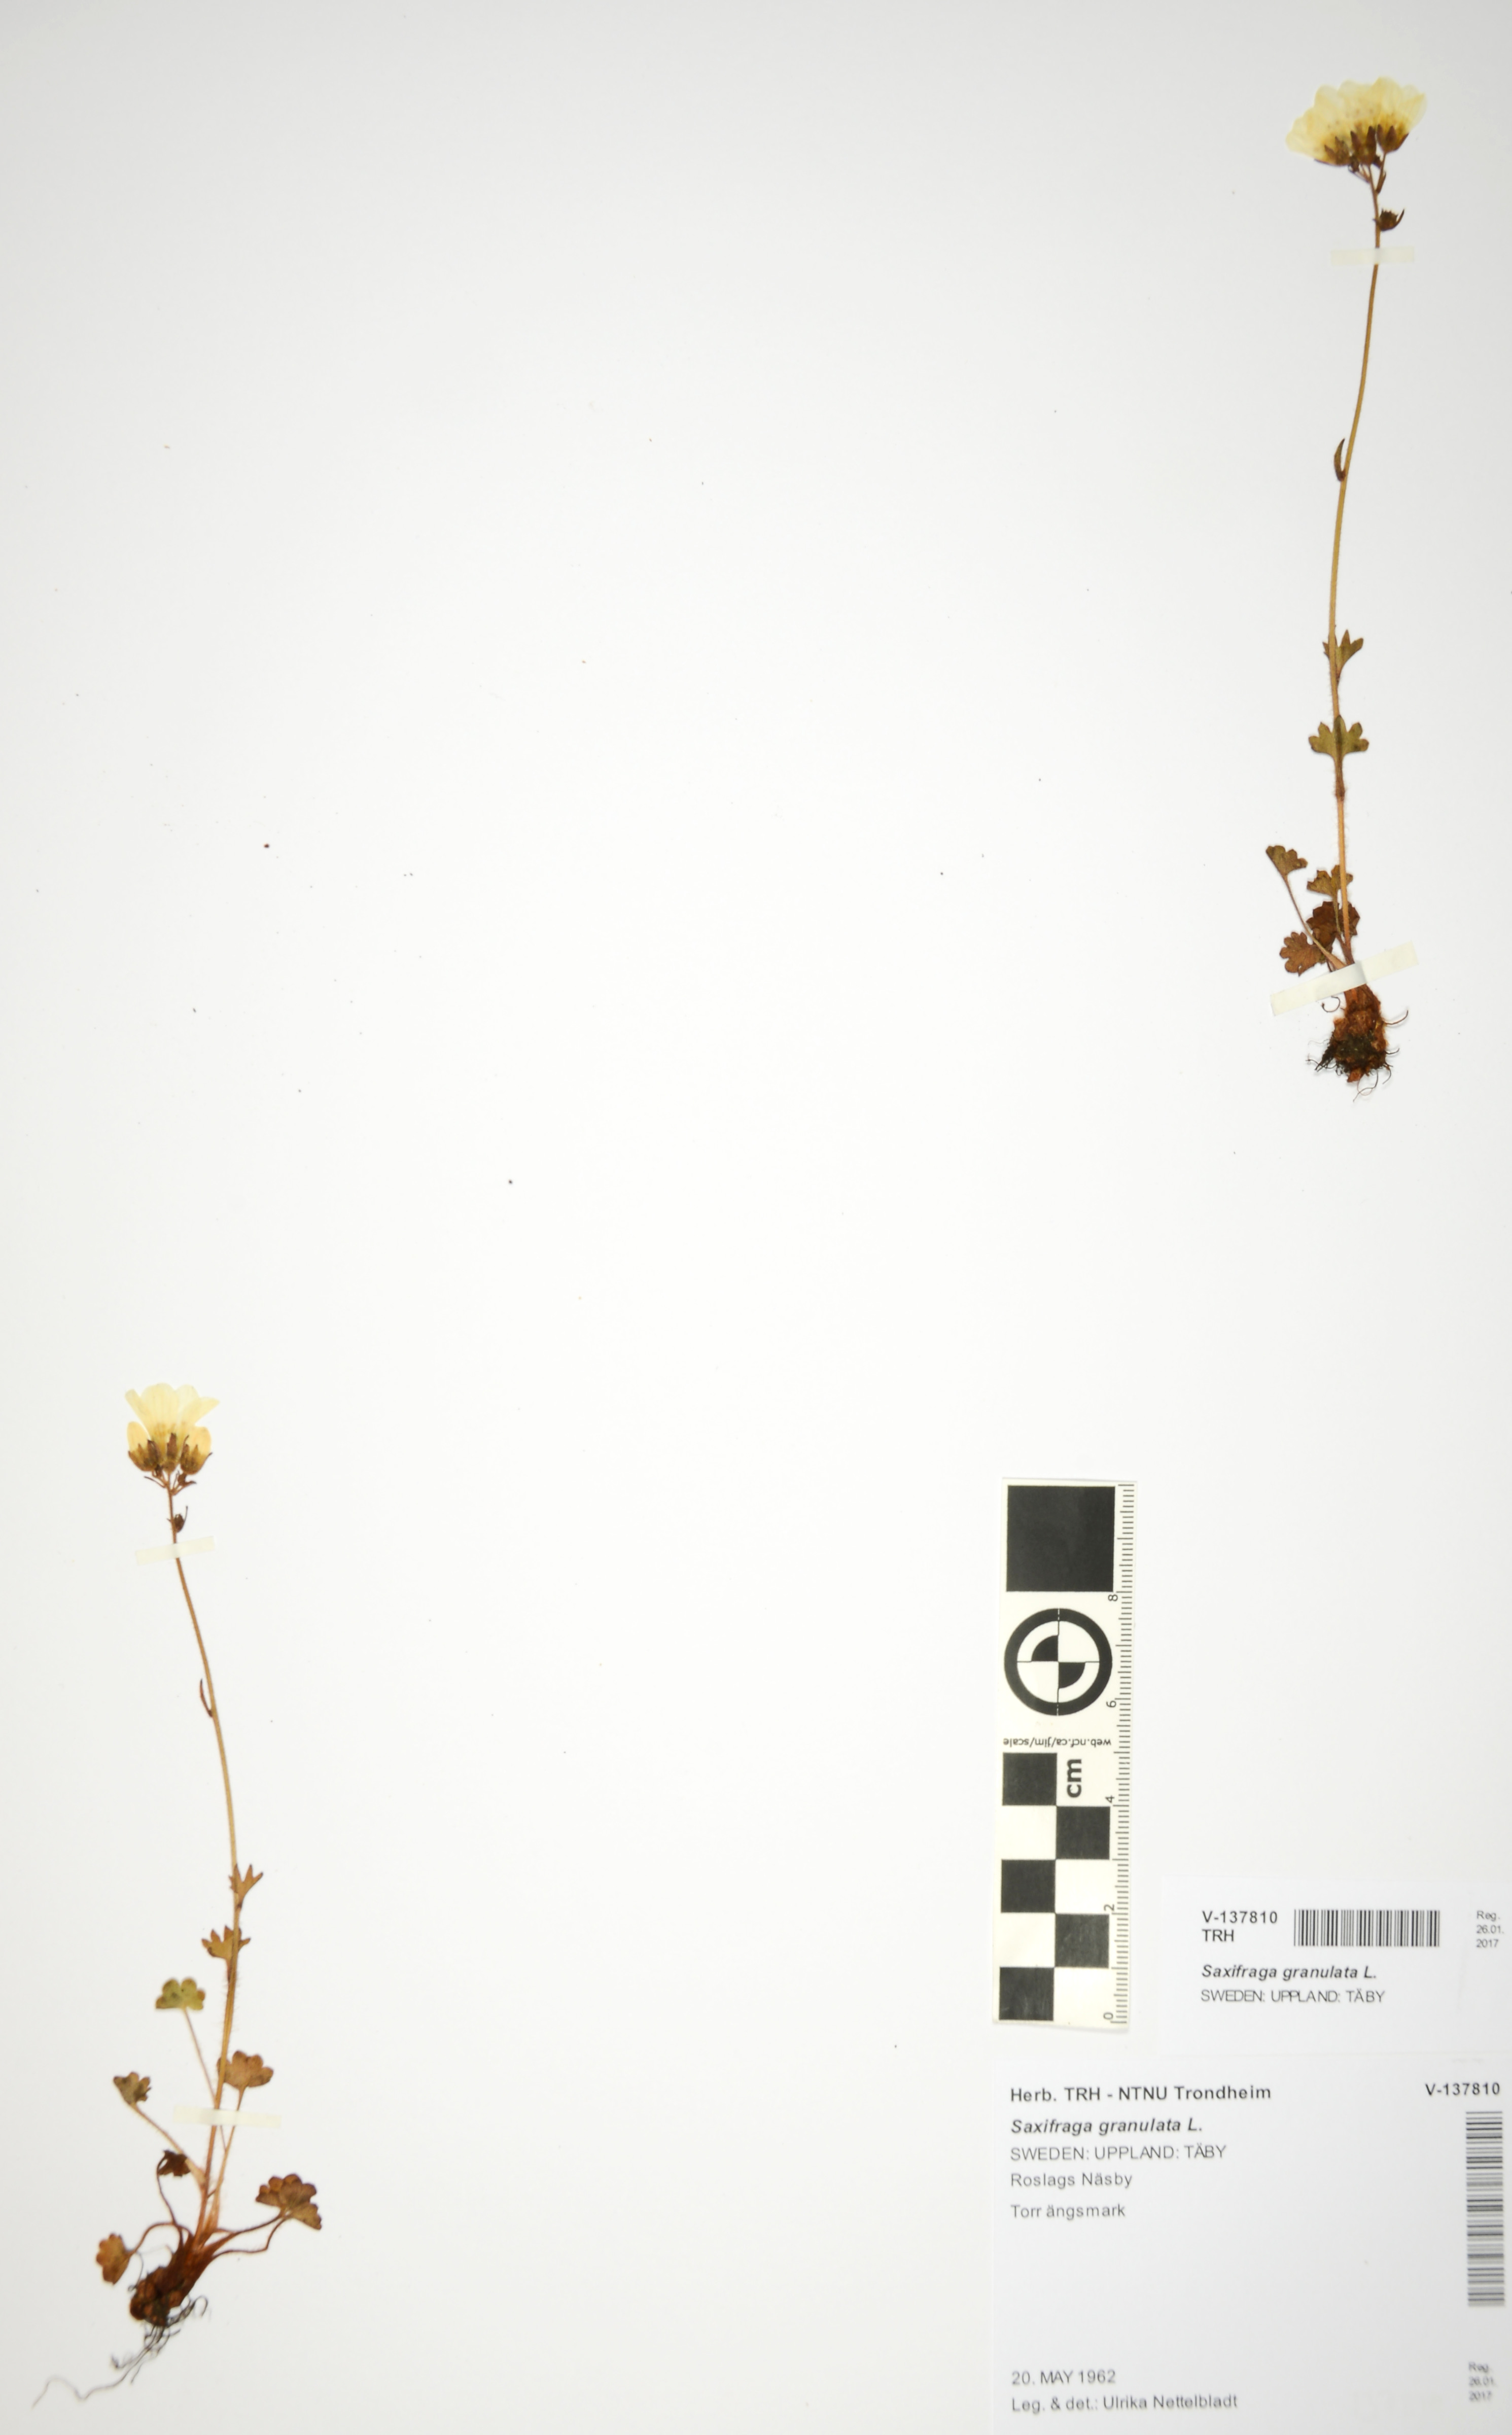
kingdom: Plantae
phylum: Tracheophyta
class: Magnoliopsida
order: Saxifragales
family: Saxifragaceae
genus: Saxifraga
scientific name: Saxifraga granulata
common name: Meadow saxifrage
